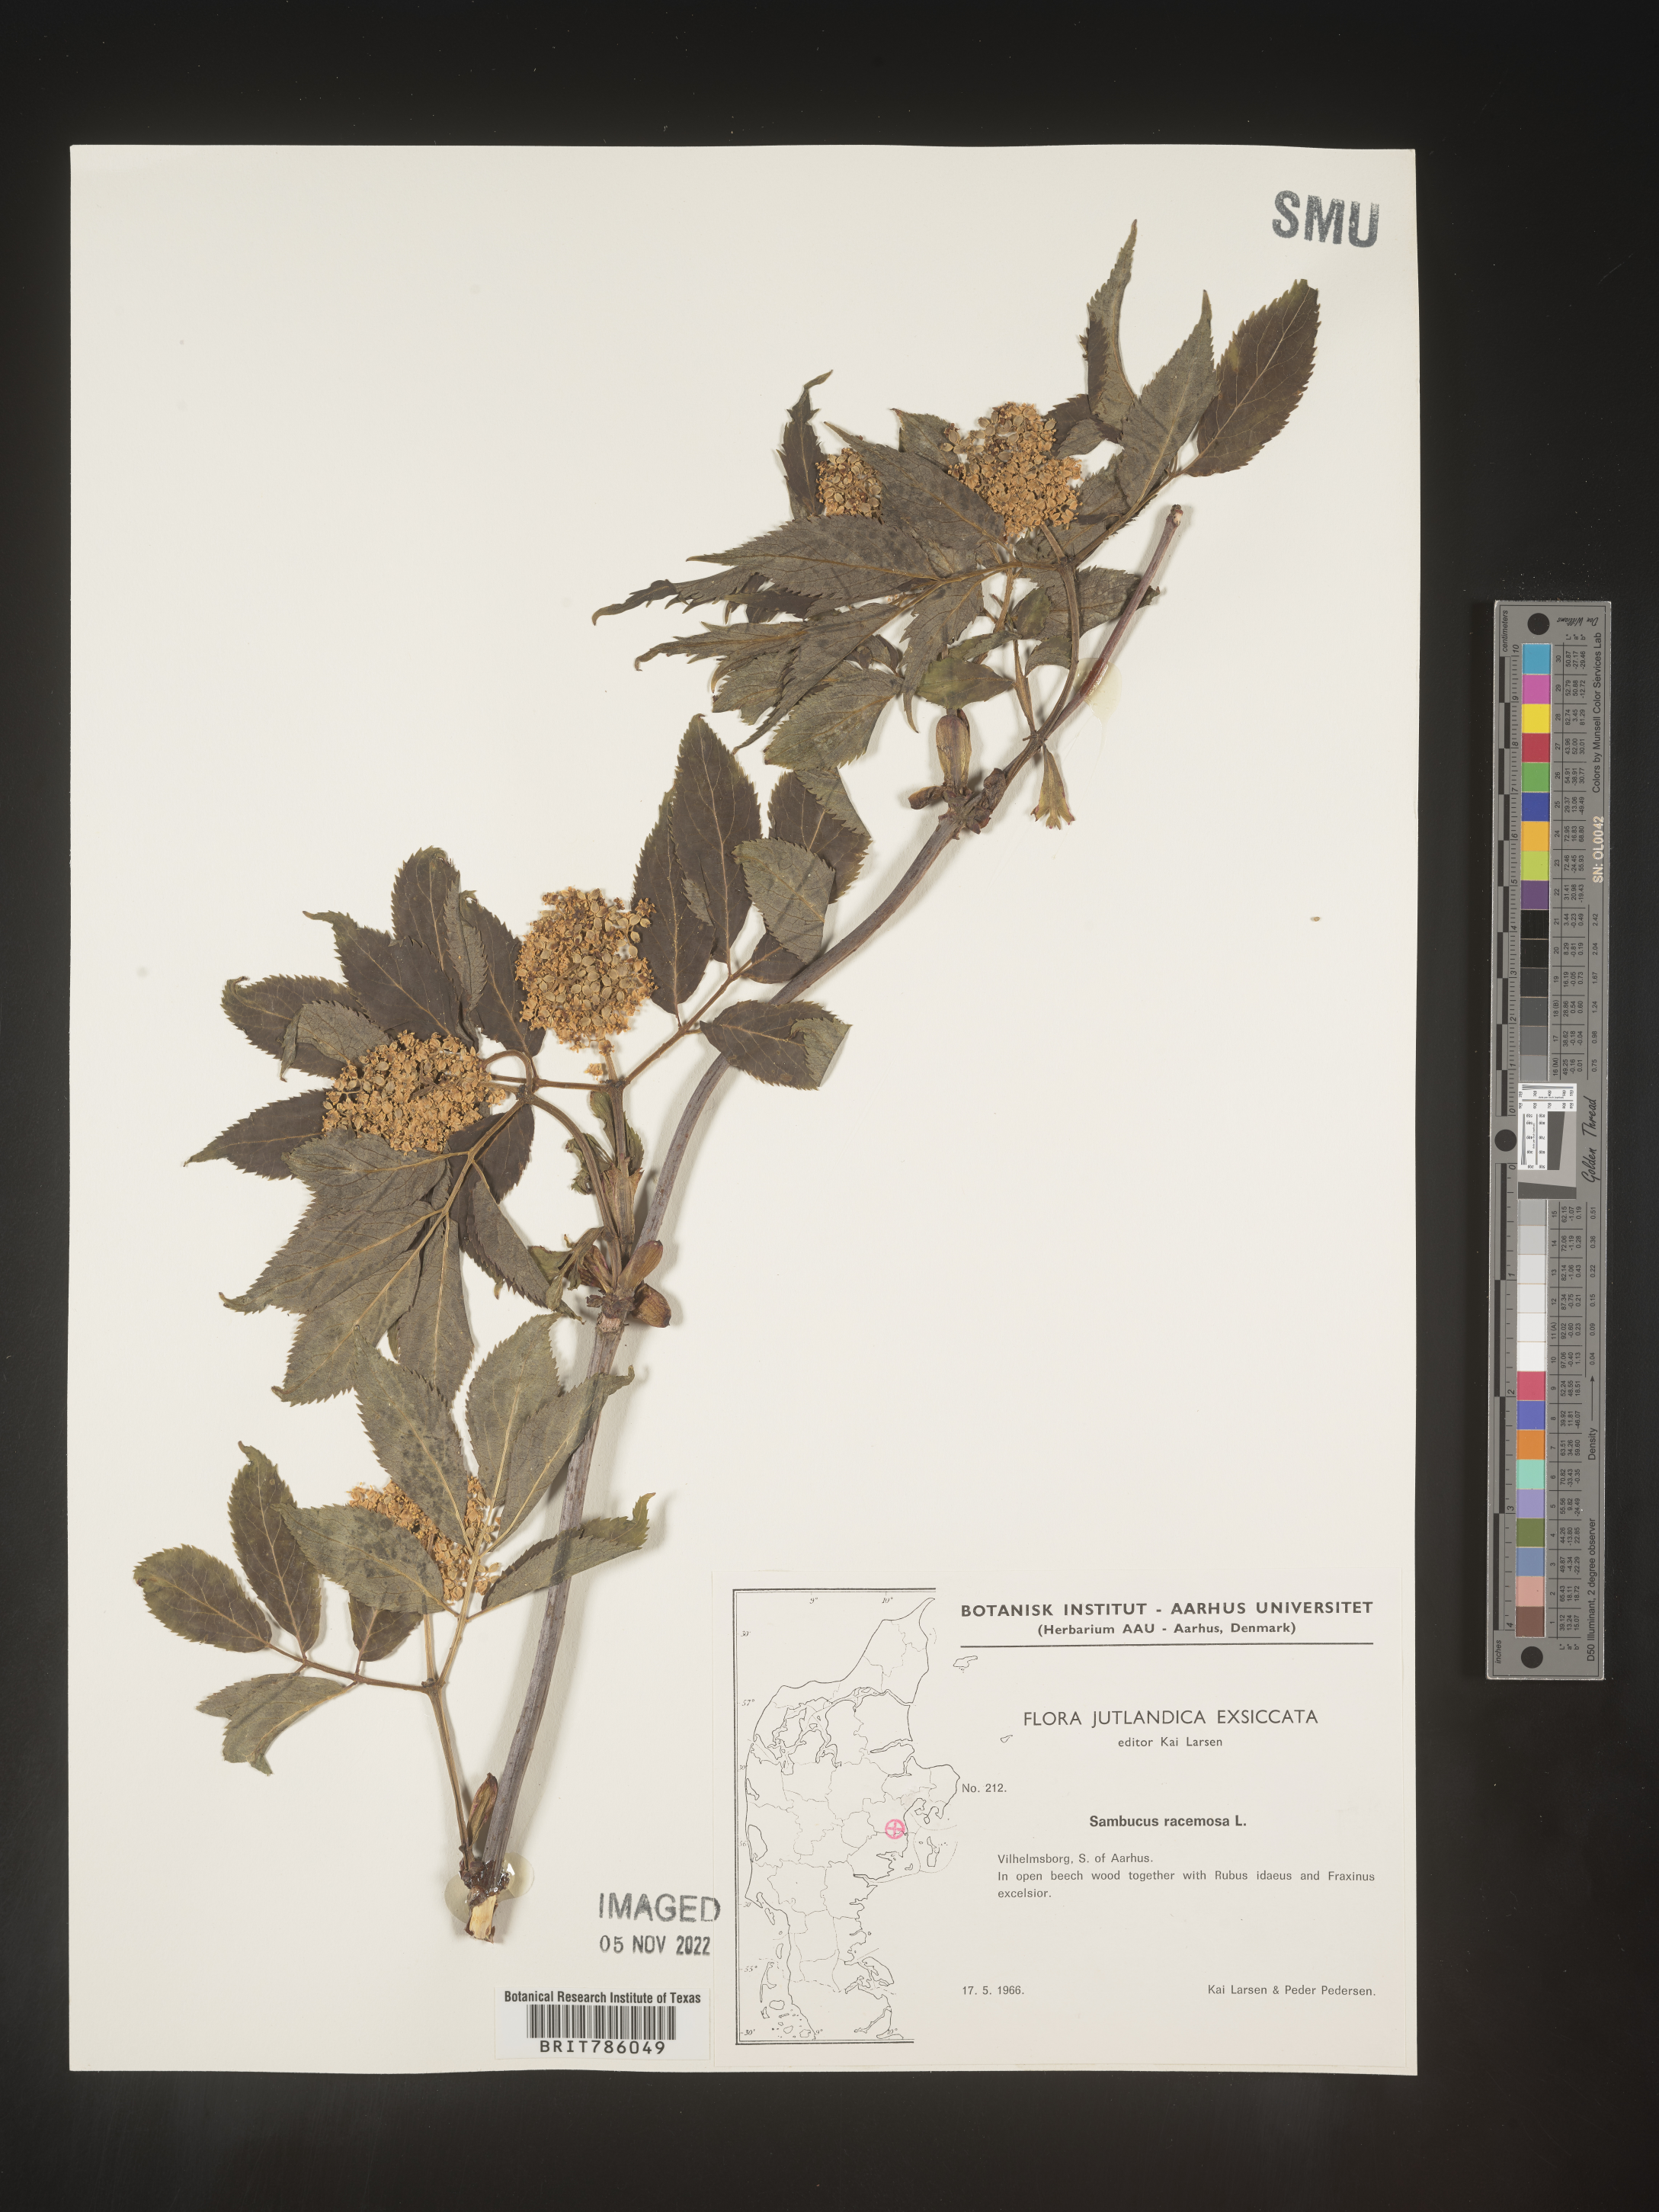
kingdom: Plantae
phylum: Tracheophyta
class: Magnoliopsida
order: Dipsacales
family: Viburnaceae
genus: Sambucus
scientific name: Sambucus
